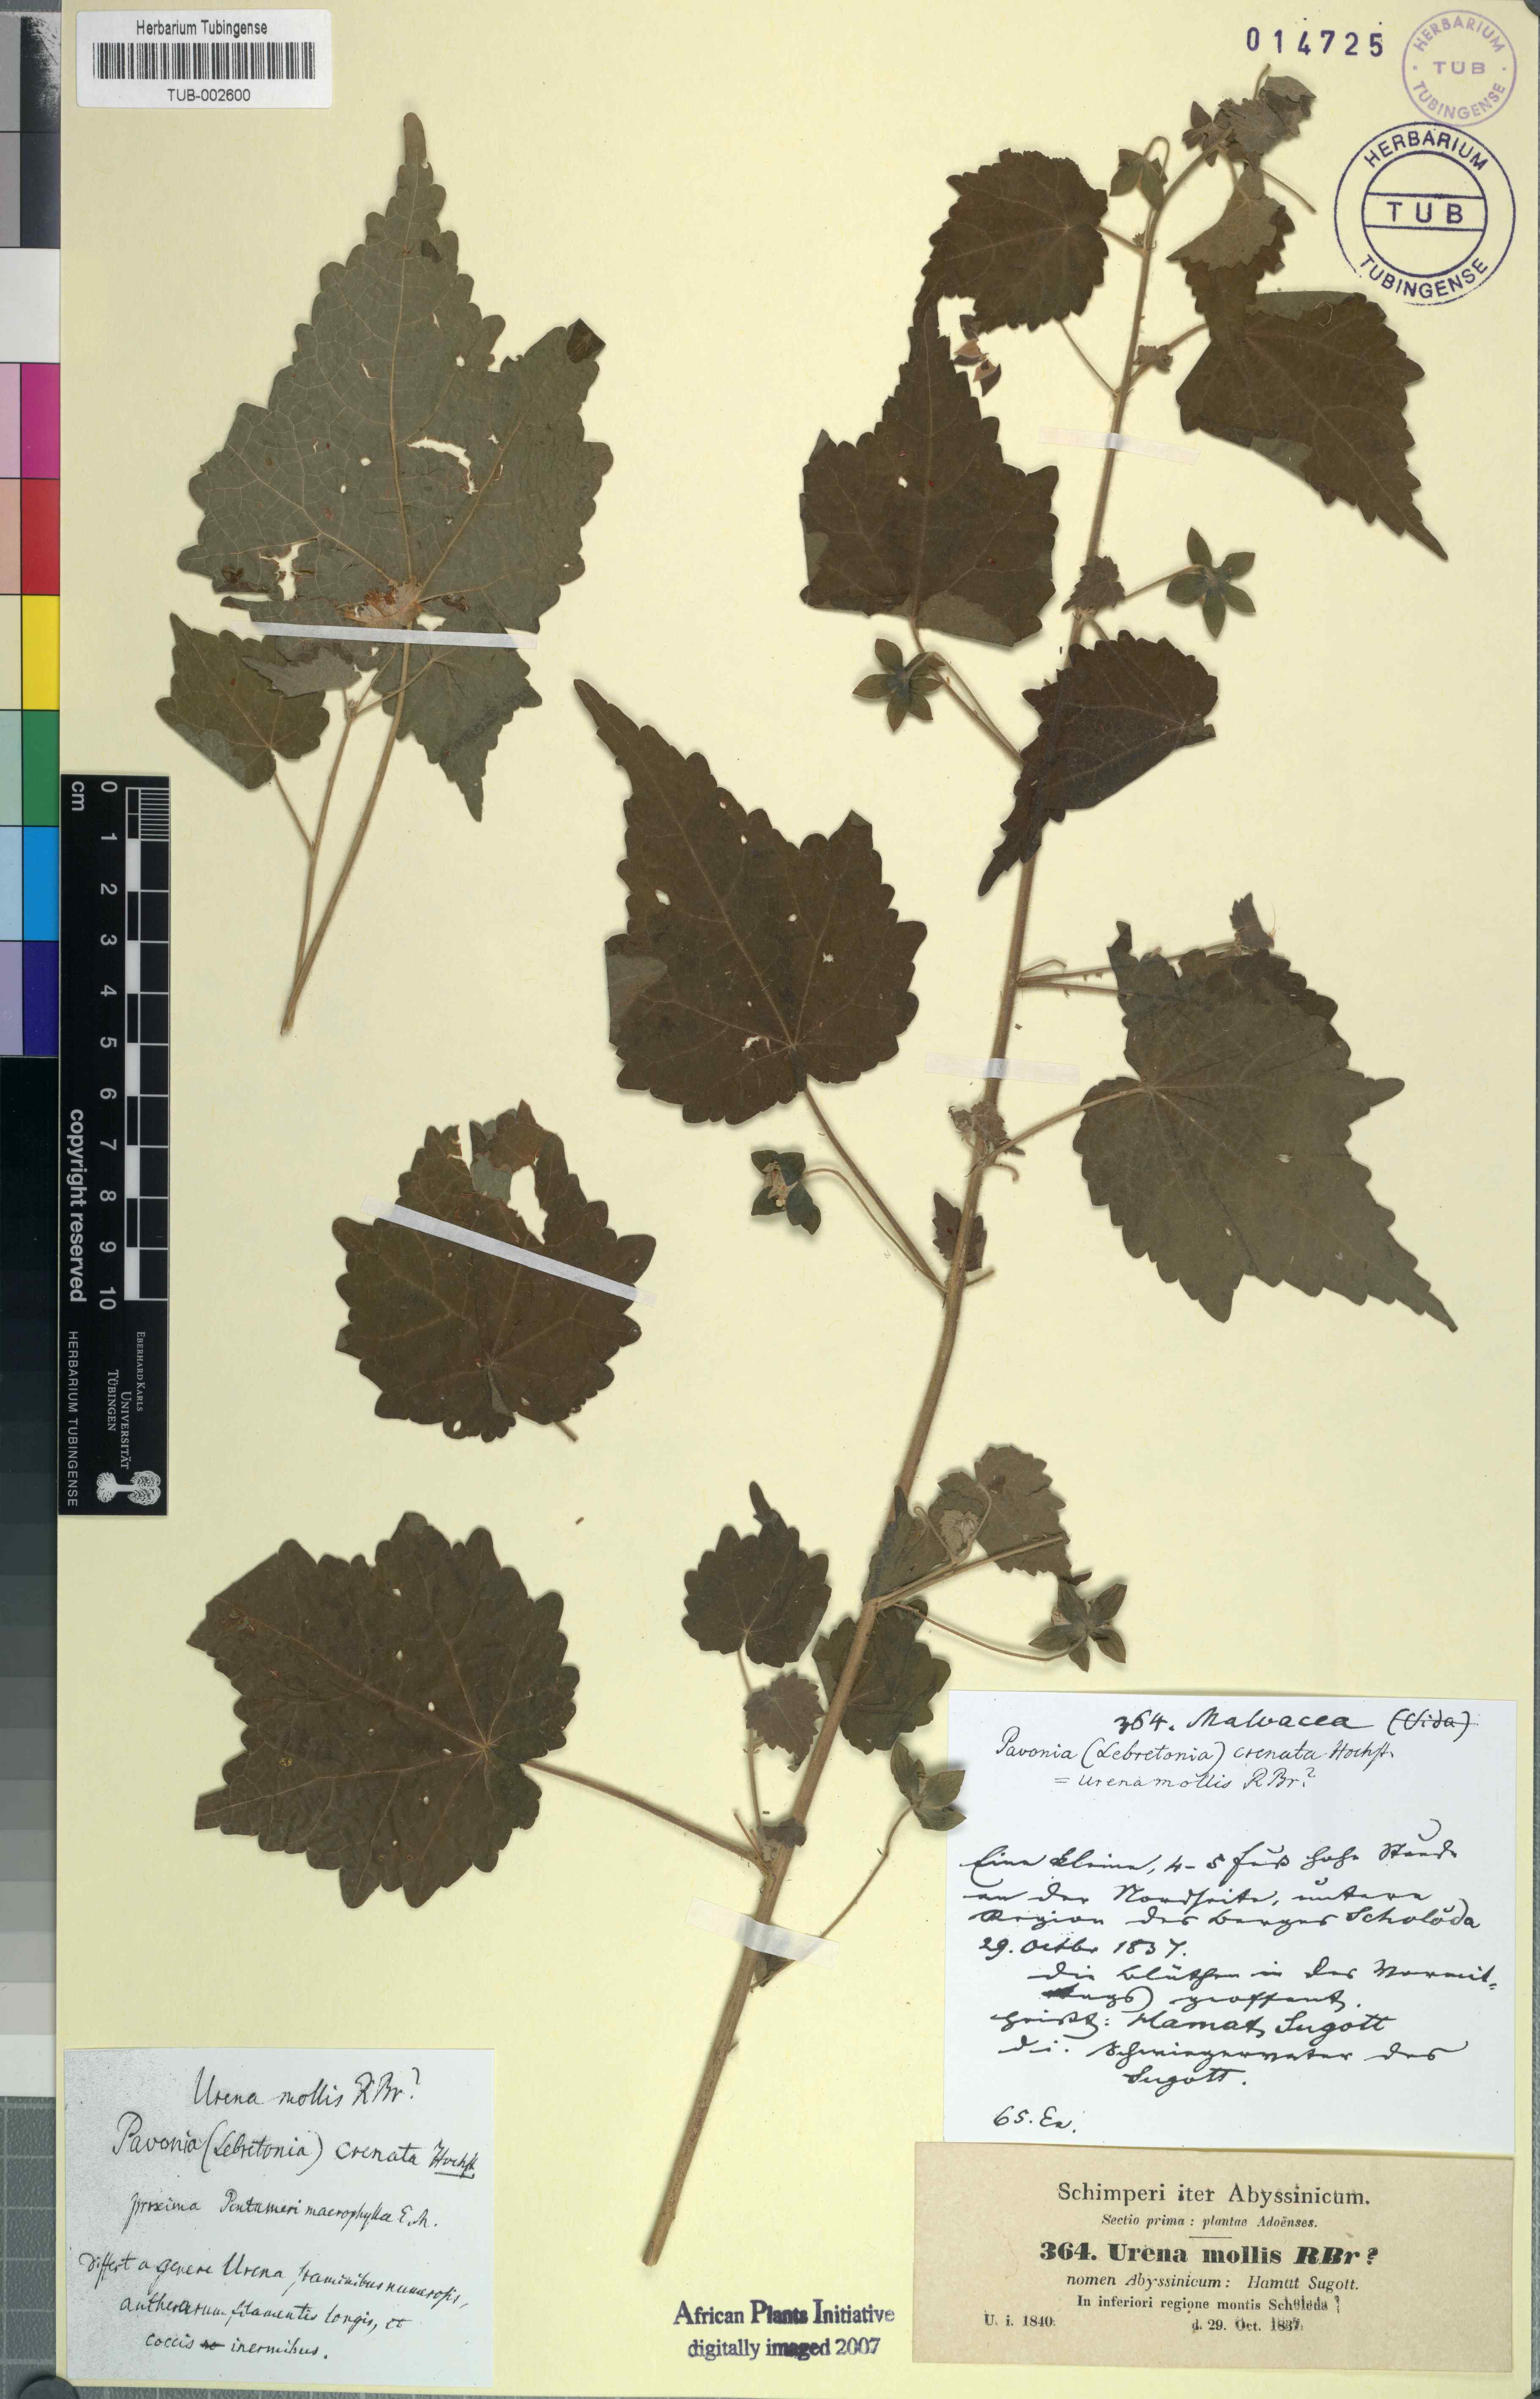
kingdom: Plantae
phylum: Tracheophyta
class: Magnoliopsida
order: Malvales
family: Malvaceae
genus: Pavonia
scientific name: Pavonia burchellii
